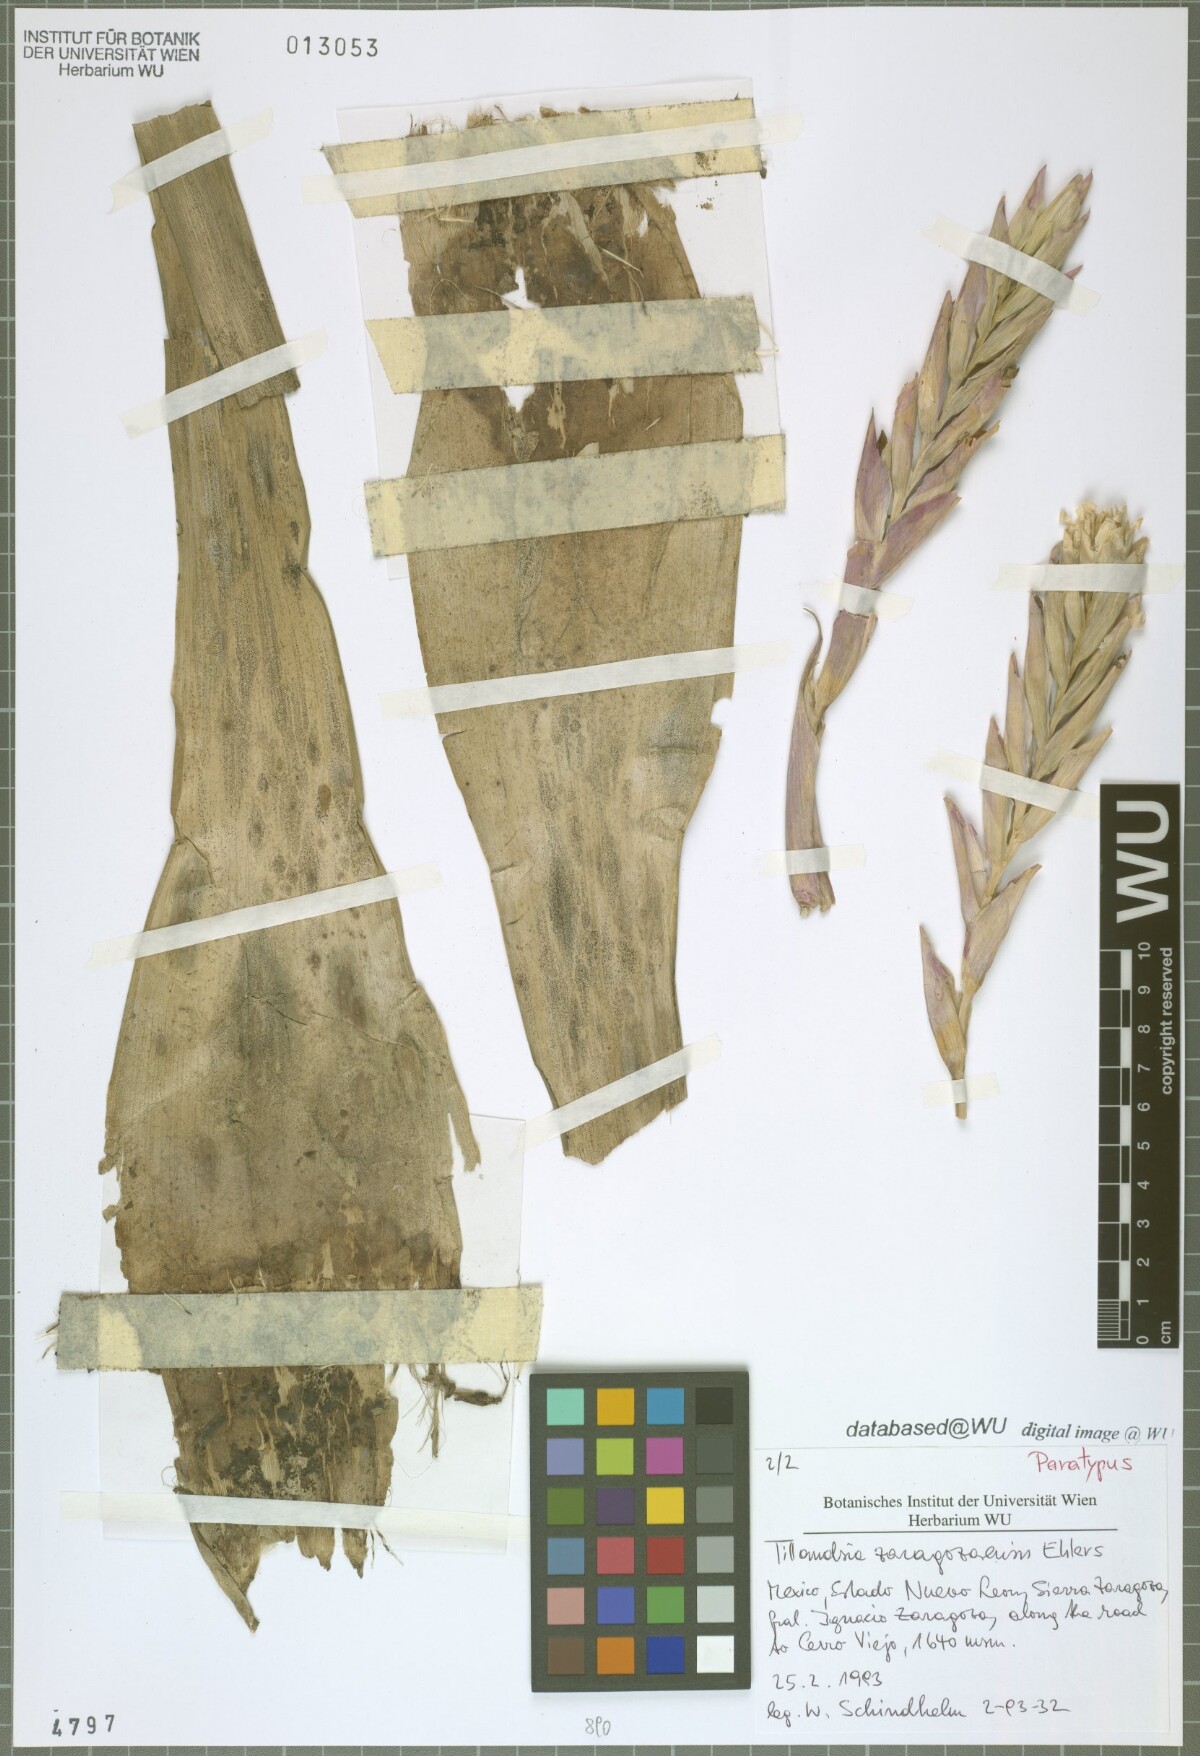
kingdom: Plantae
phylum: Tracheophyta
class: Liliopsida
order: Poales
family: Bromeliaceae
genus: Tillandsia
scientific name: Tillandsia zaragozaensis
